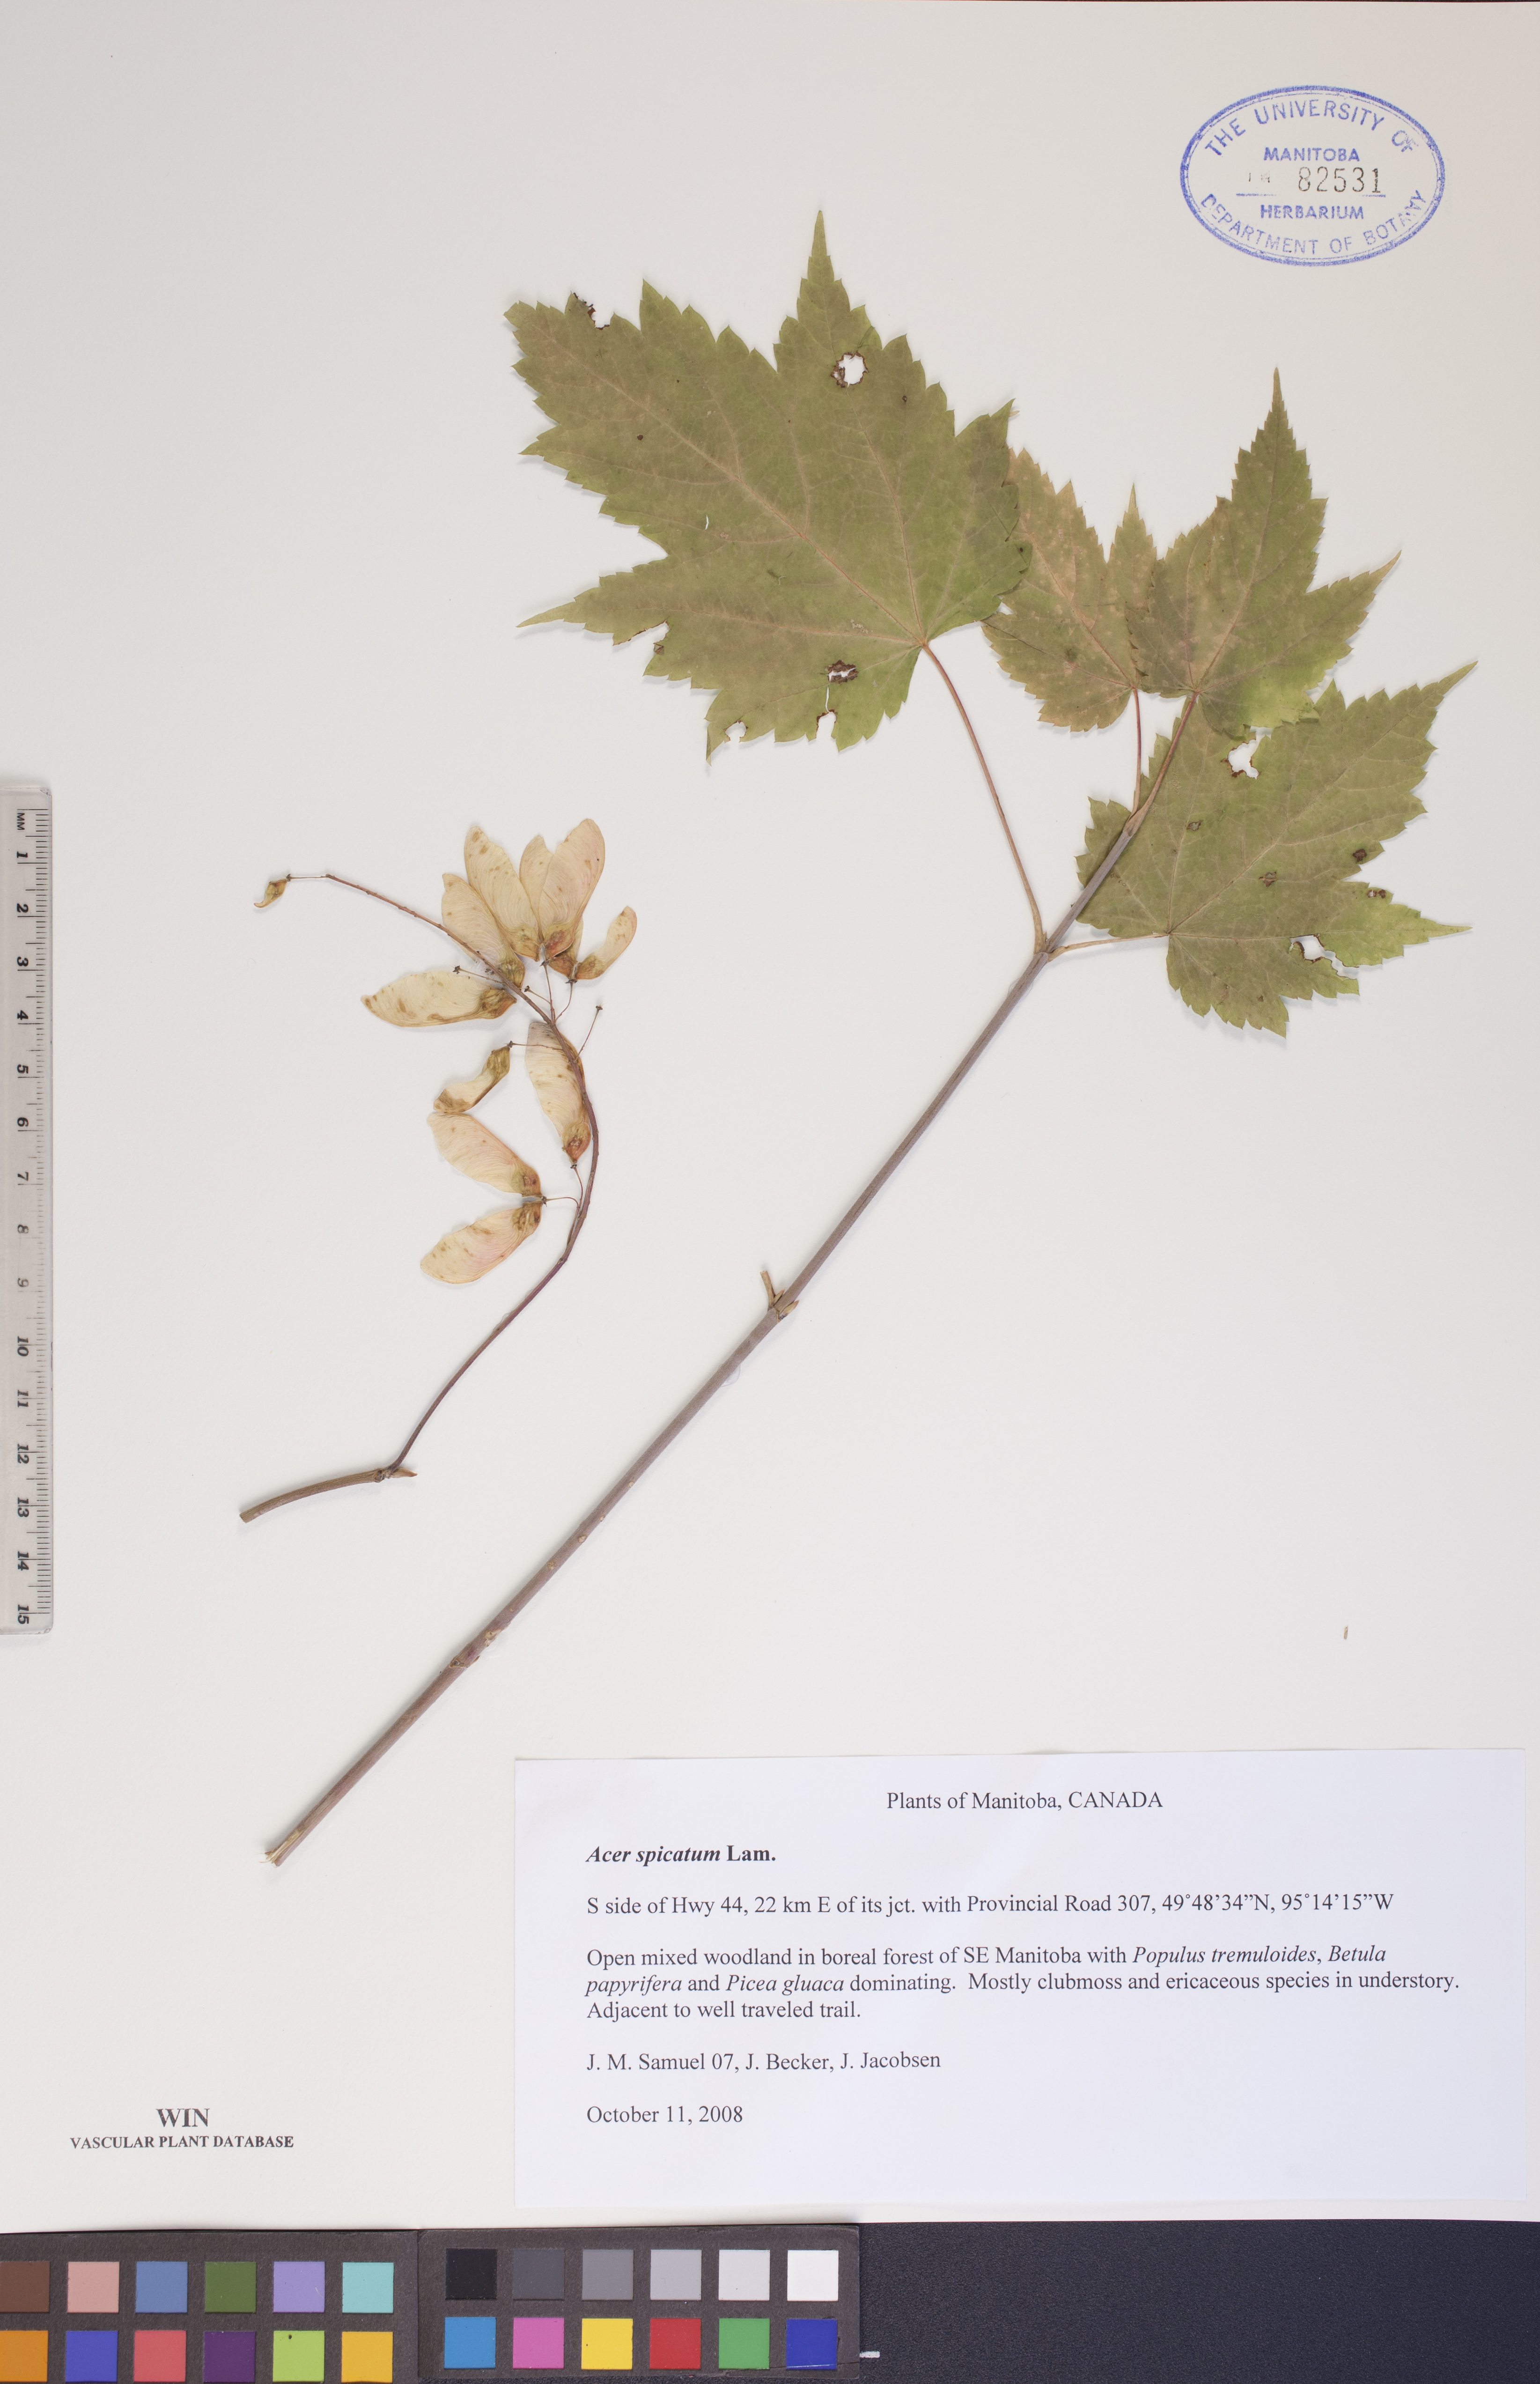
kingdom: Plantae
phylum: Tracheophyta
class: Magnoliopsida
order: Sapindales
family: Sapindaceae
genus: Acer
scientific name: Acer spicatum
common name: Mountain maple
